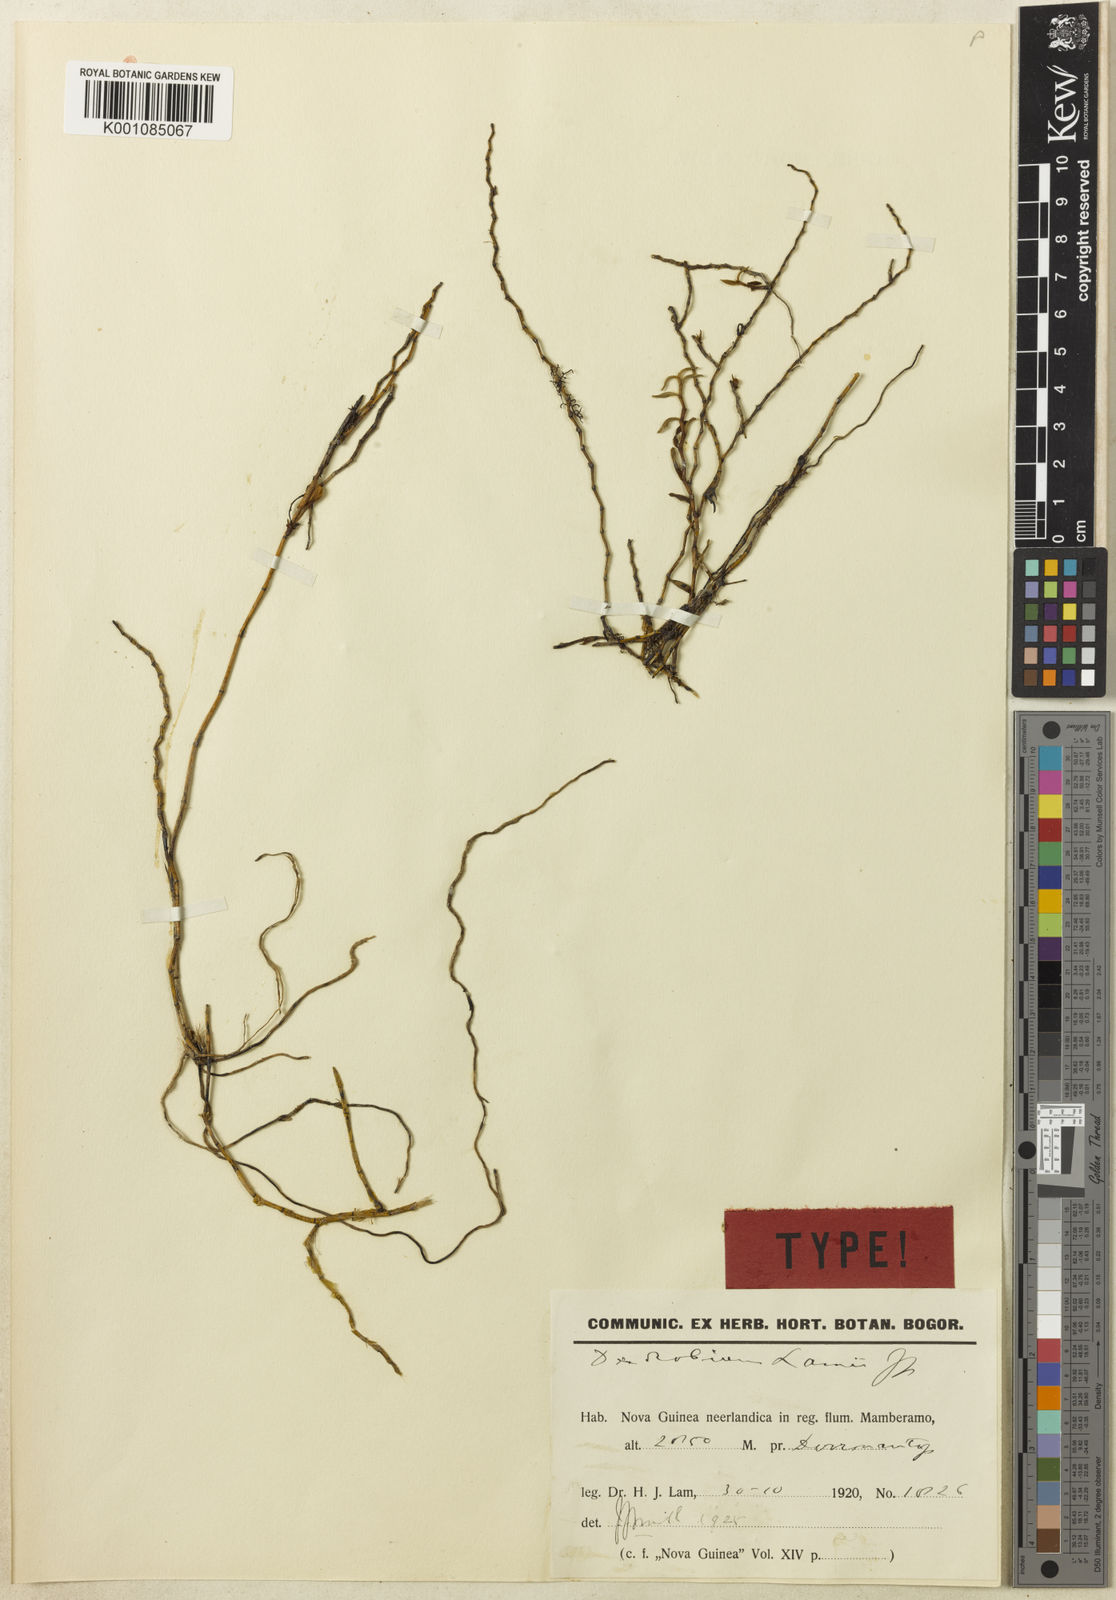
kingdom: Plantae
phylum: Tracheophyta
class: Liliopsida
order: Asparagales
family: Orchidaceae
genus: Dendrobium
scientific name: Dendrobium lamii
